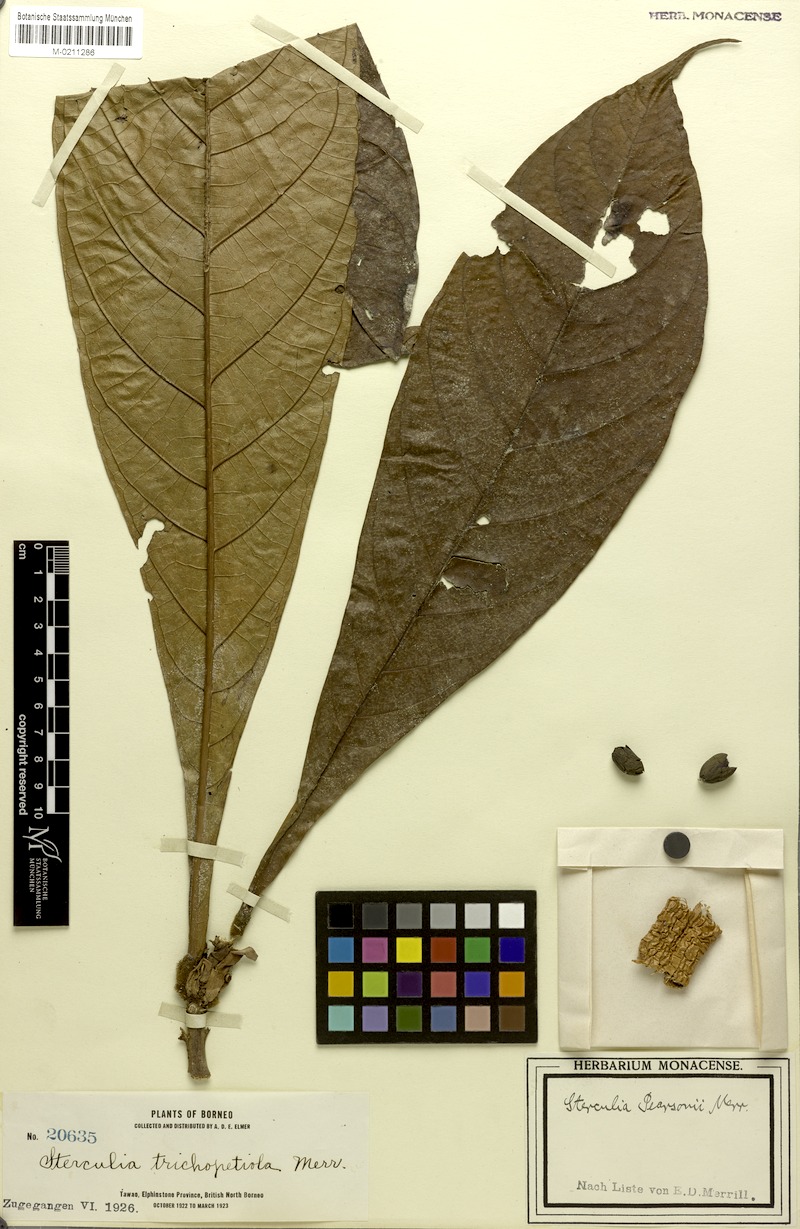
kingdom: Plantae
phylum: Tracheophyta
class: Magnoliopsida
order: Malvales
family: Malvaceae
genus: Sterculia
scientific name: Sterculia stipulata
